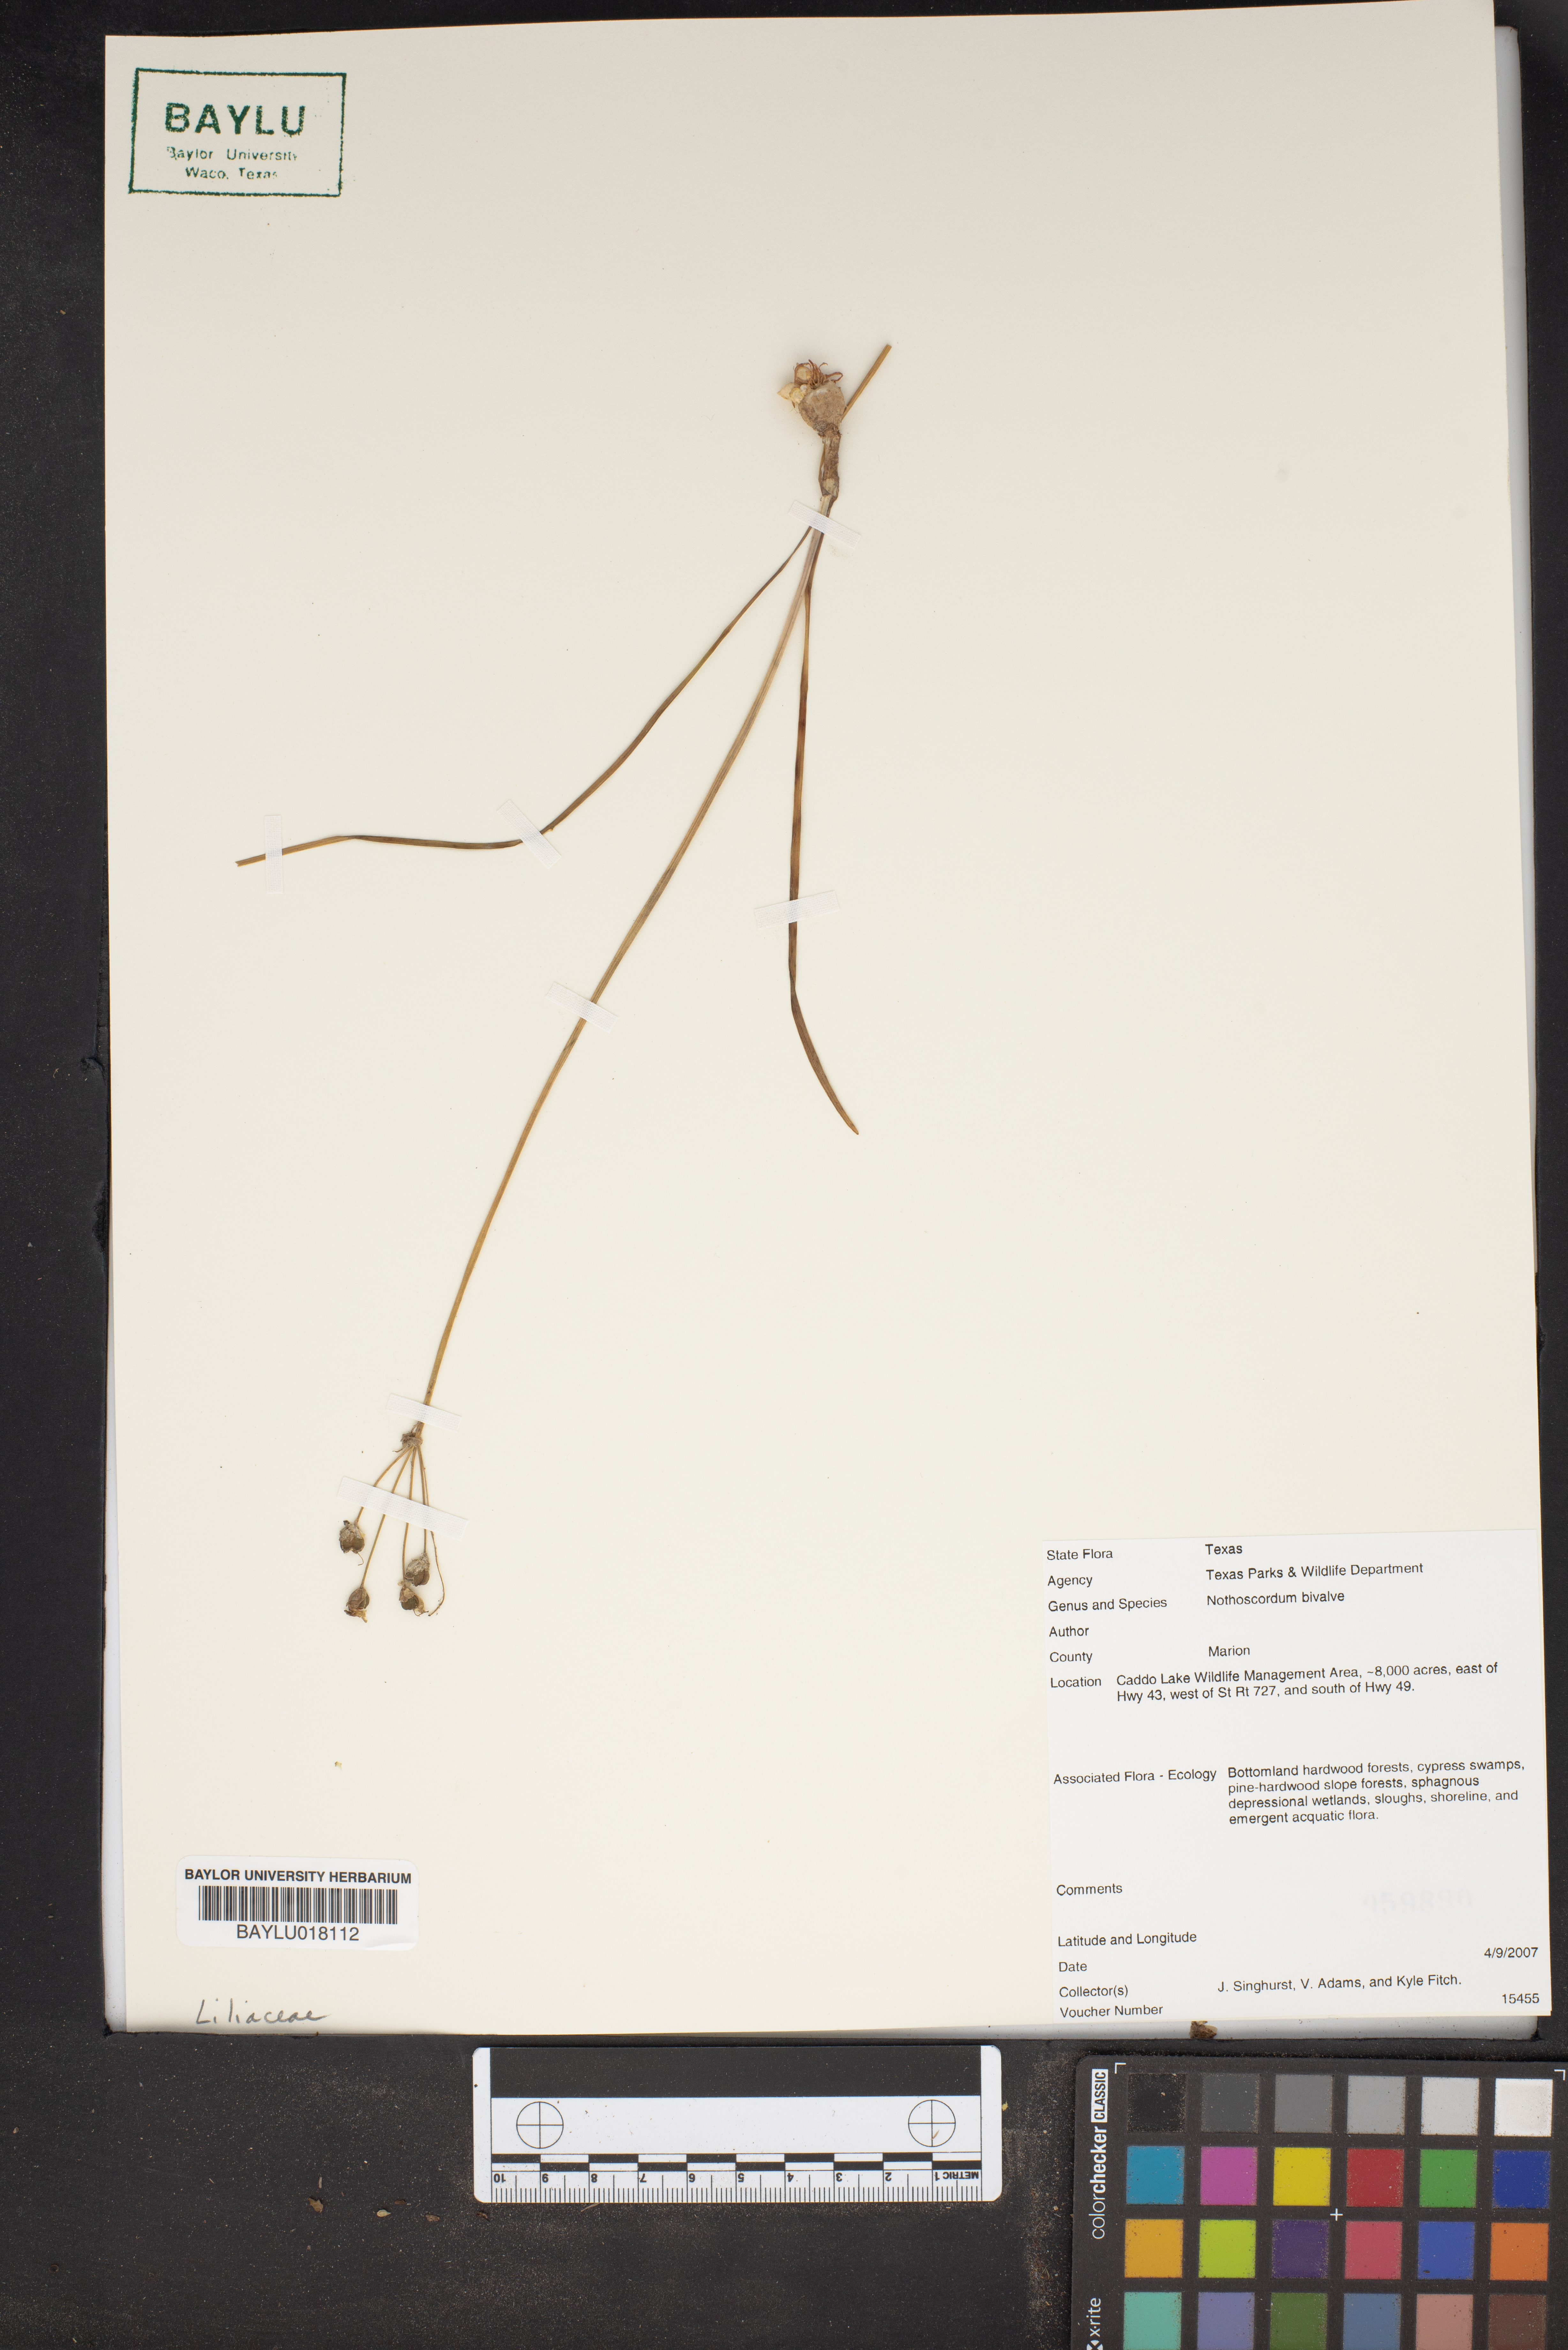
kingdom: Plantae
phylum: Tracheophyta
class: Liliopsida
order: Asparagales
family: Amaryllidaceae
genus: Nothoscordum
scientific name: Nothoscordum bivalve
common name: Crow-poison
